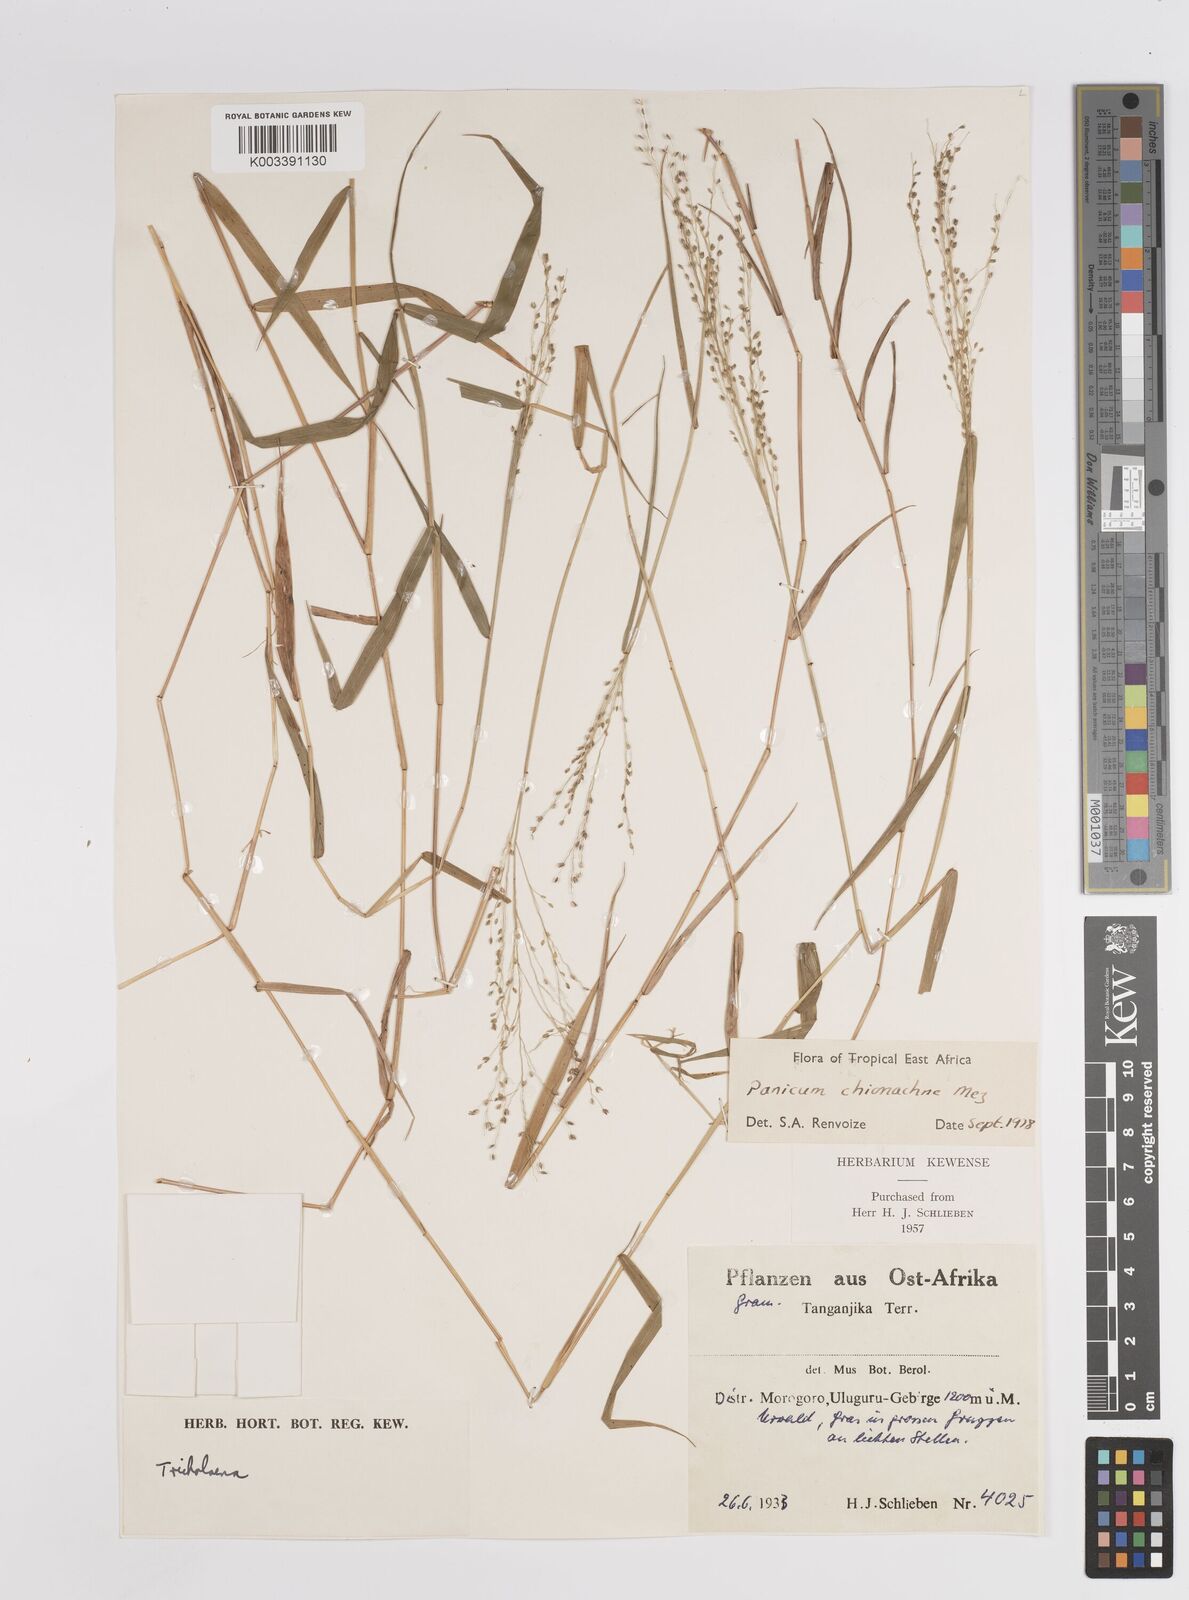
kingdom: Plantae
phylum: Tracheophyta
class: Liliopsida
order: Poales
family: Poaceae
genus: Panicum
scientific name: Panicum chionachne
